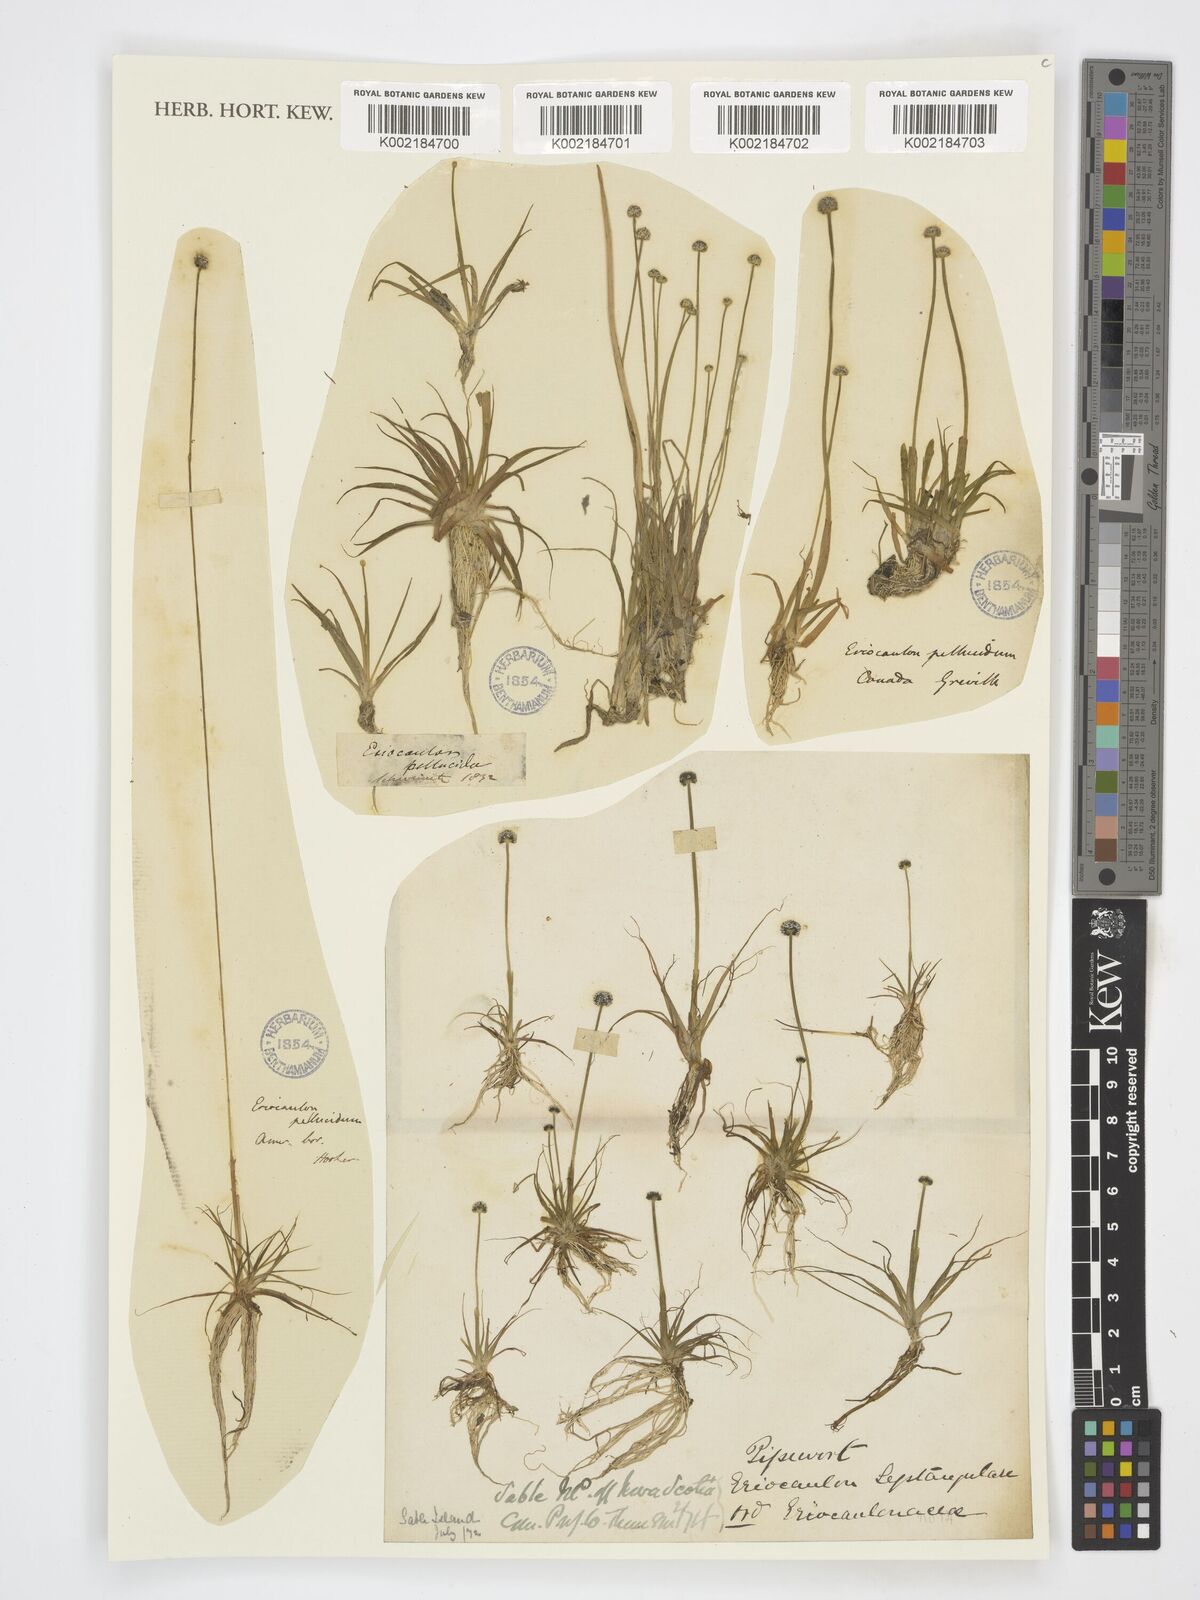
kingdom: Plantae
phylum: Tracheophyta
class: Liliopsida
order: Poales
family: Eriocaulaceae
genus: Eriocaulon
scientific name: Eriocaulon aquaticum
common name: Pipewort
